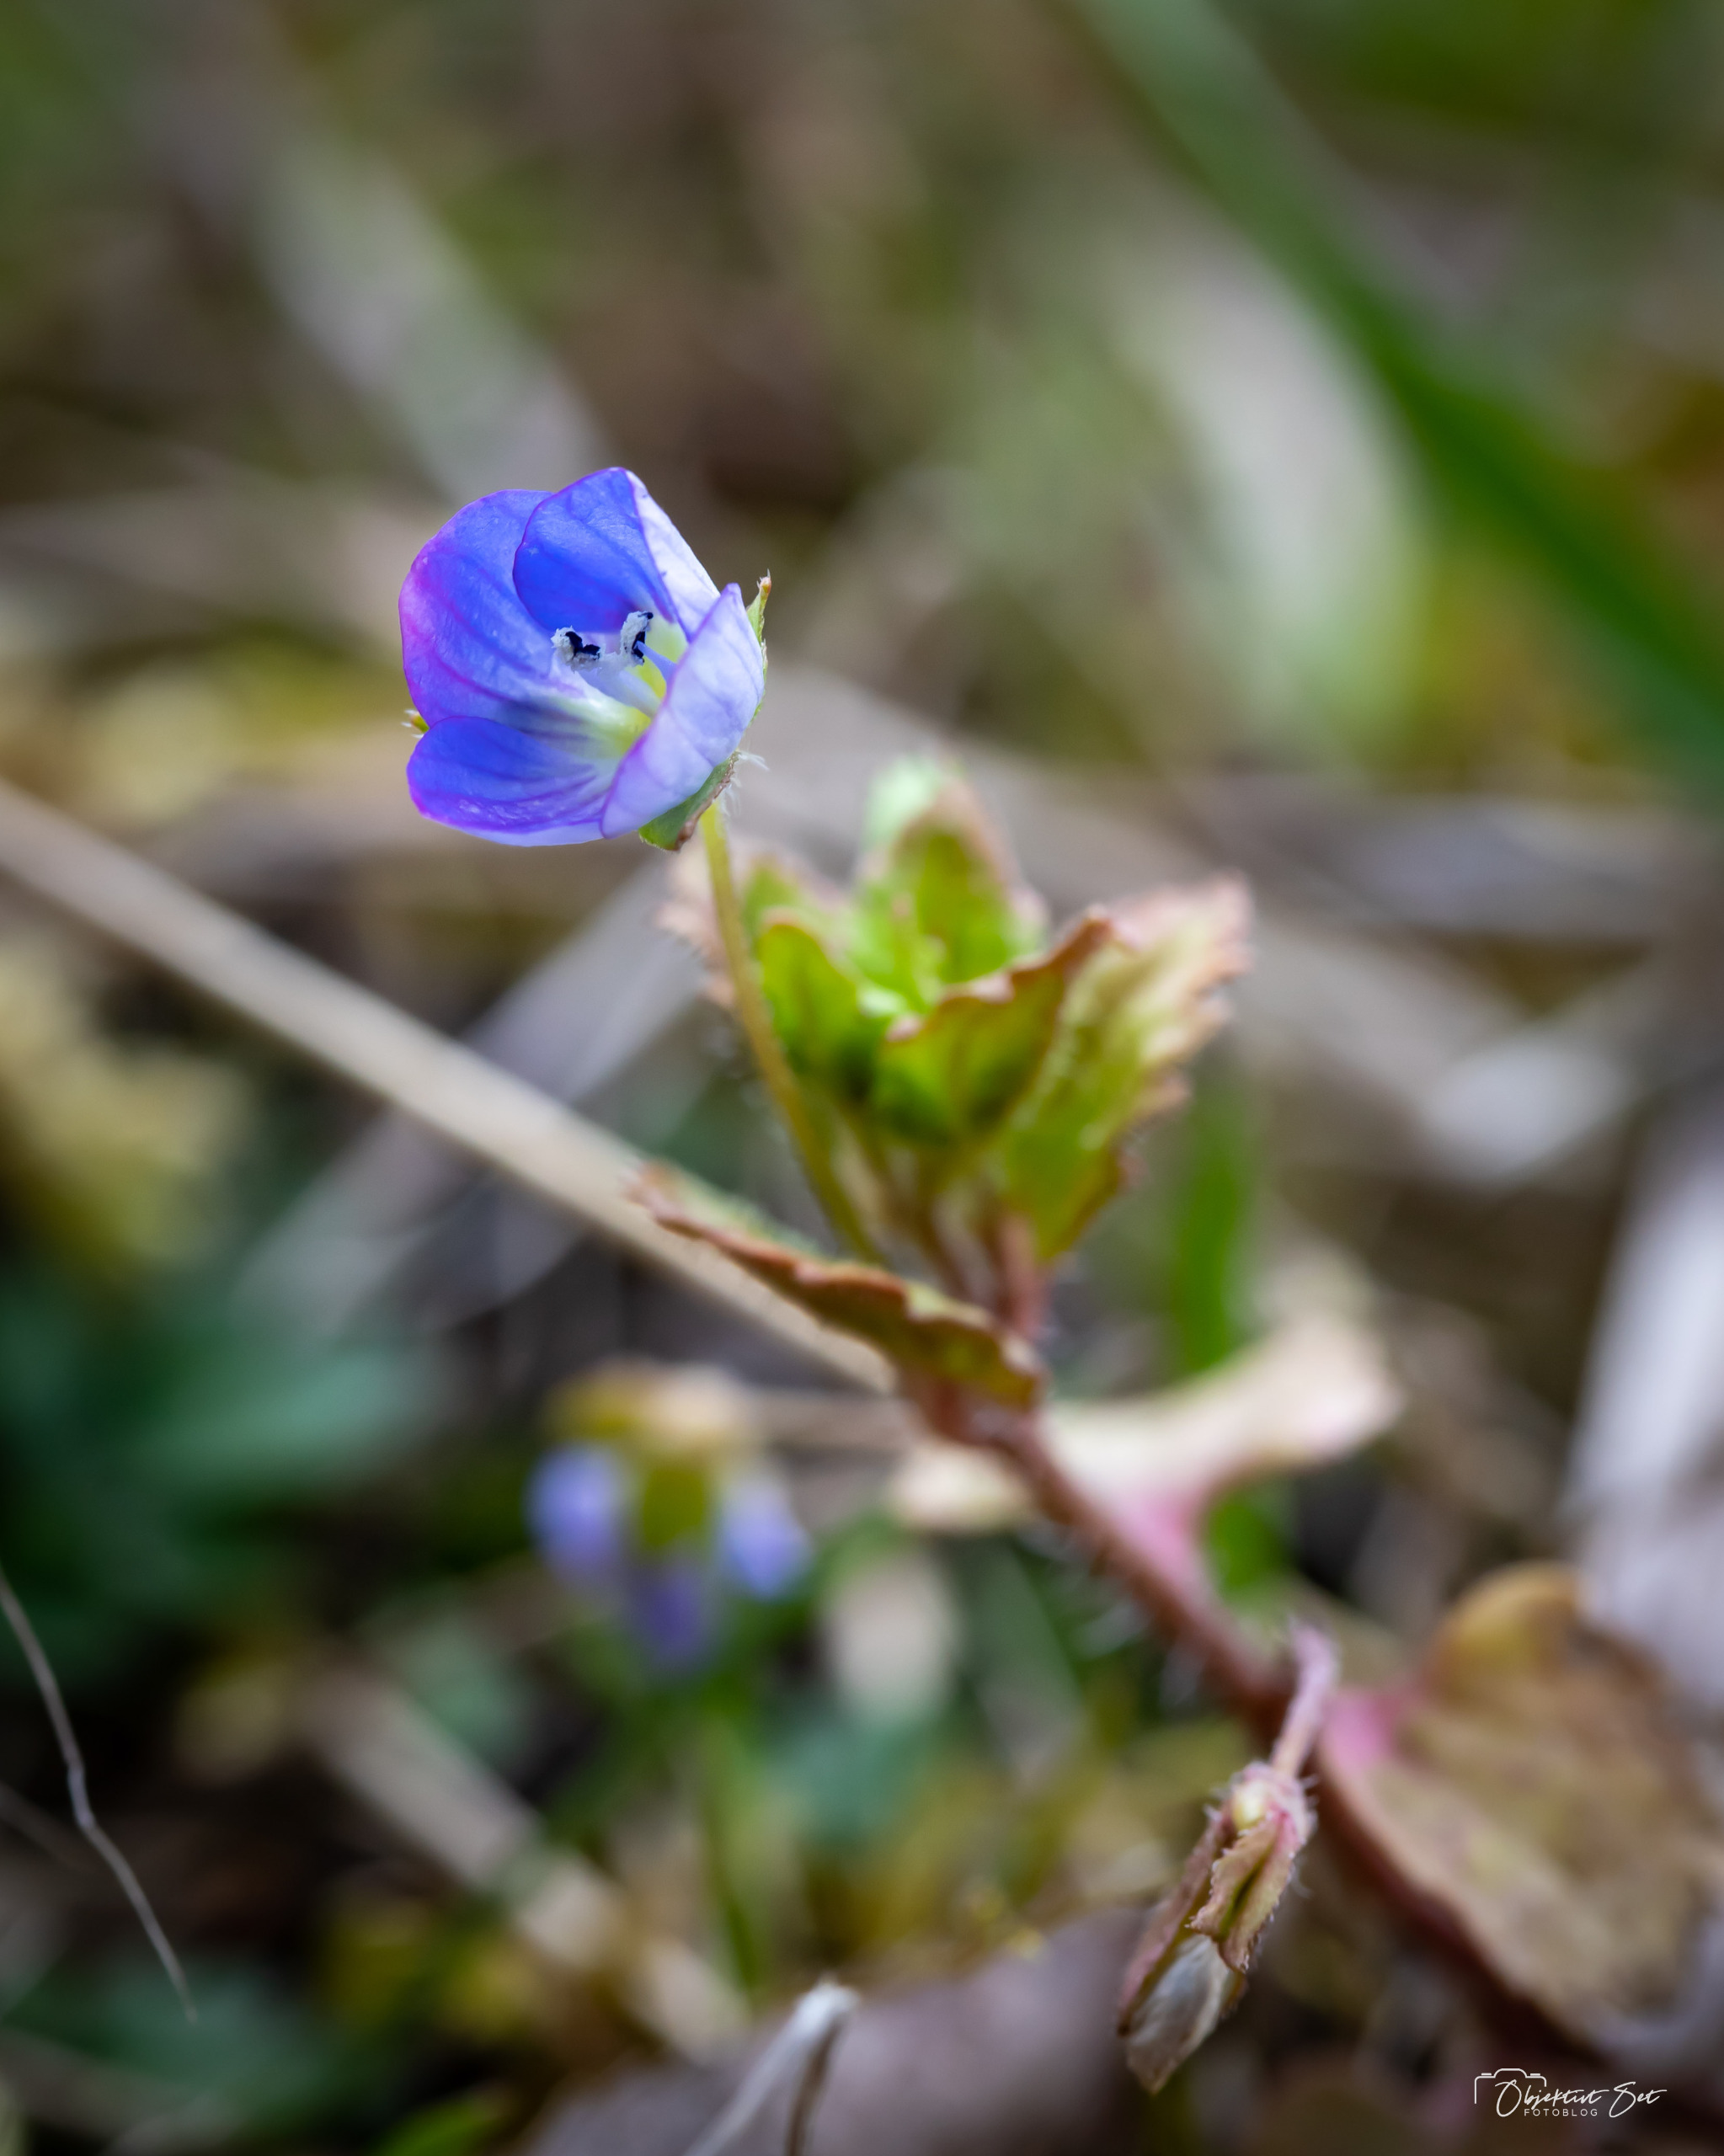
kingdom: Plantae
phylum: Tracheophyta
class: Magnoliopsida
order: Lamiales
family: Plantaginaceae
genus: Veronica
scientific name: Veronica persica
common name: Storkronet ærenpris
